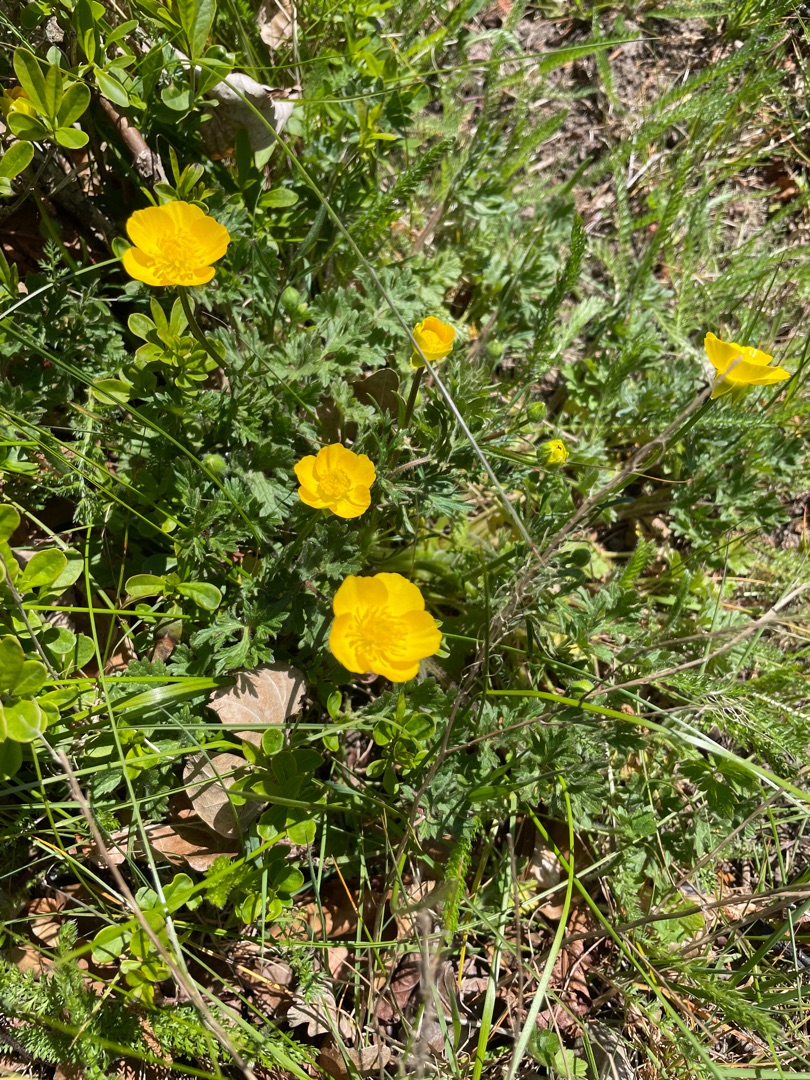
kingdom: Plantae
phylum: Tracheophyta
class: Magnoliopsida
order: Ranunculales
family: Ranunculaceae
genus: Ranunculus
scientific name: Ranunculus bulbosus
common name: Knold-ranunkel
